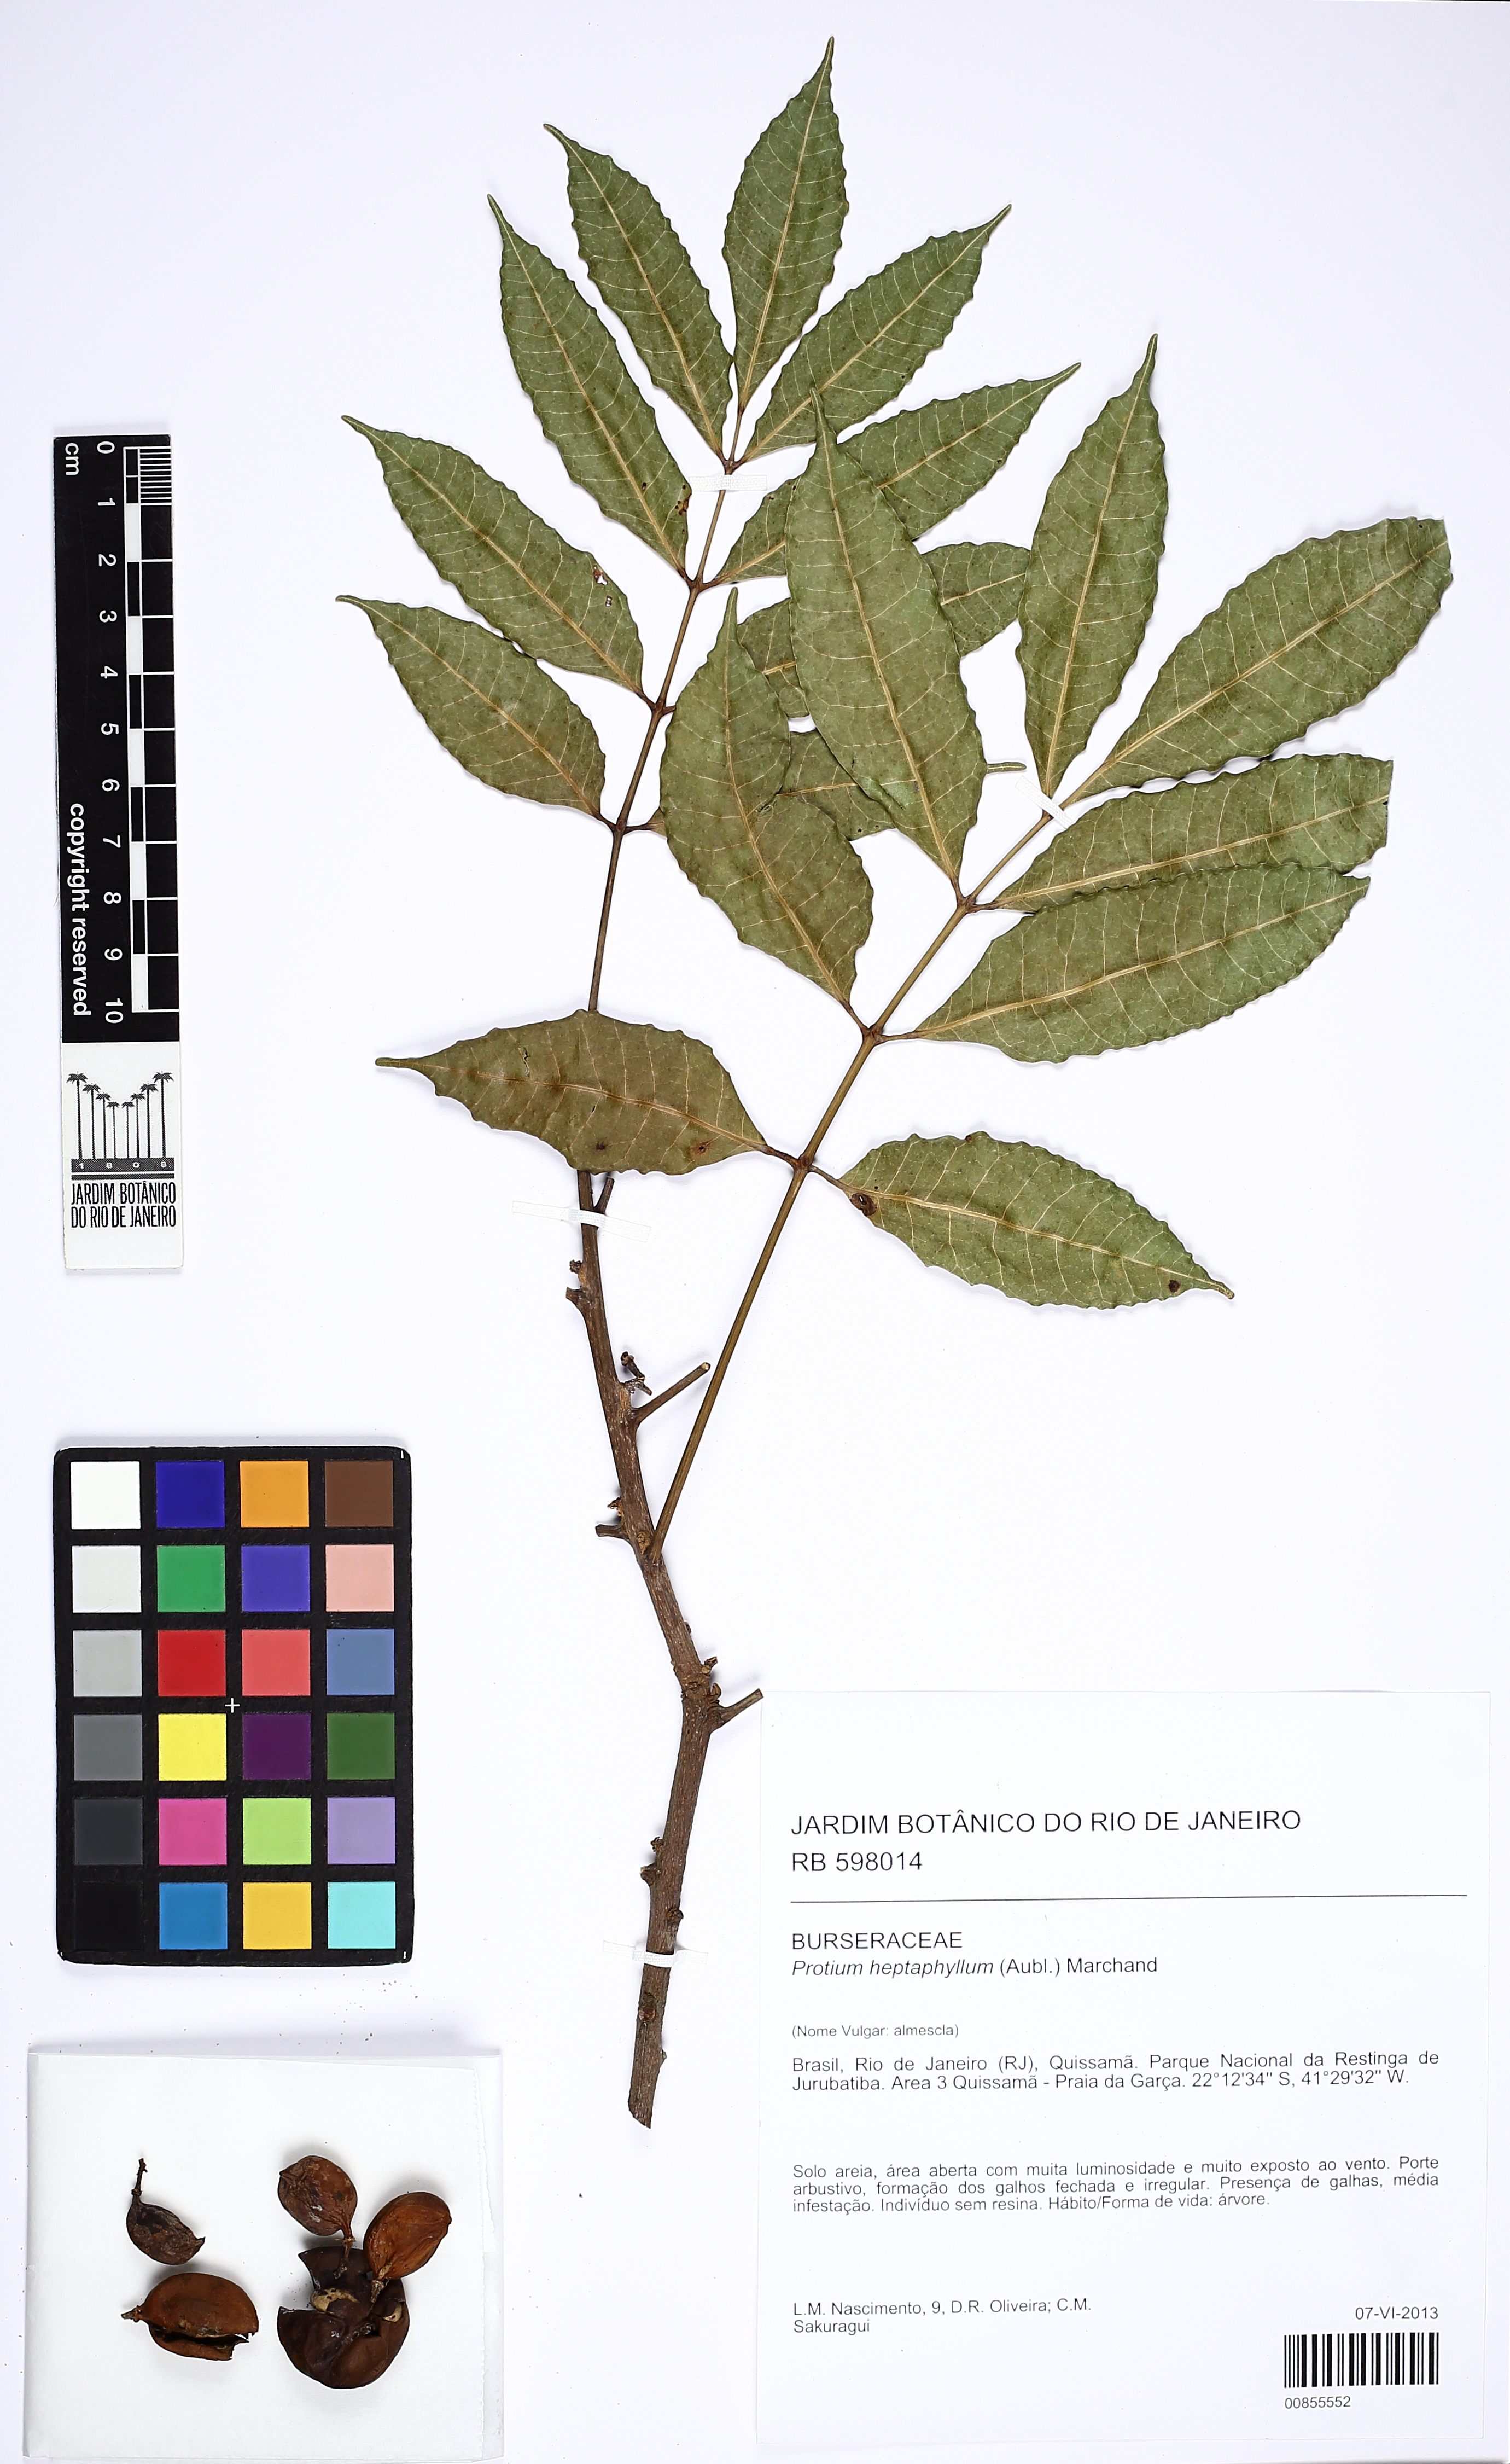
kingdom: Plantae
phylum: Tracheophyta
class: Magnoliopsida
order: Sapindales
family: Burseraceae
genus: Protium
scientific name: Protium heptaphyllum
